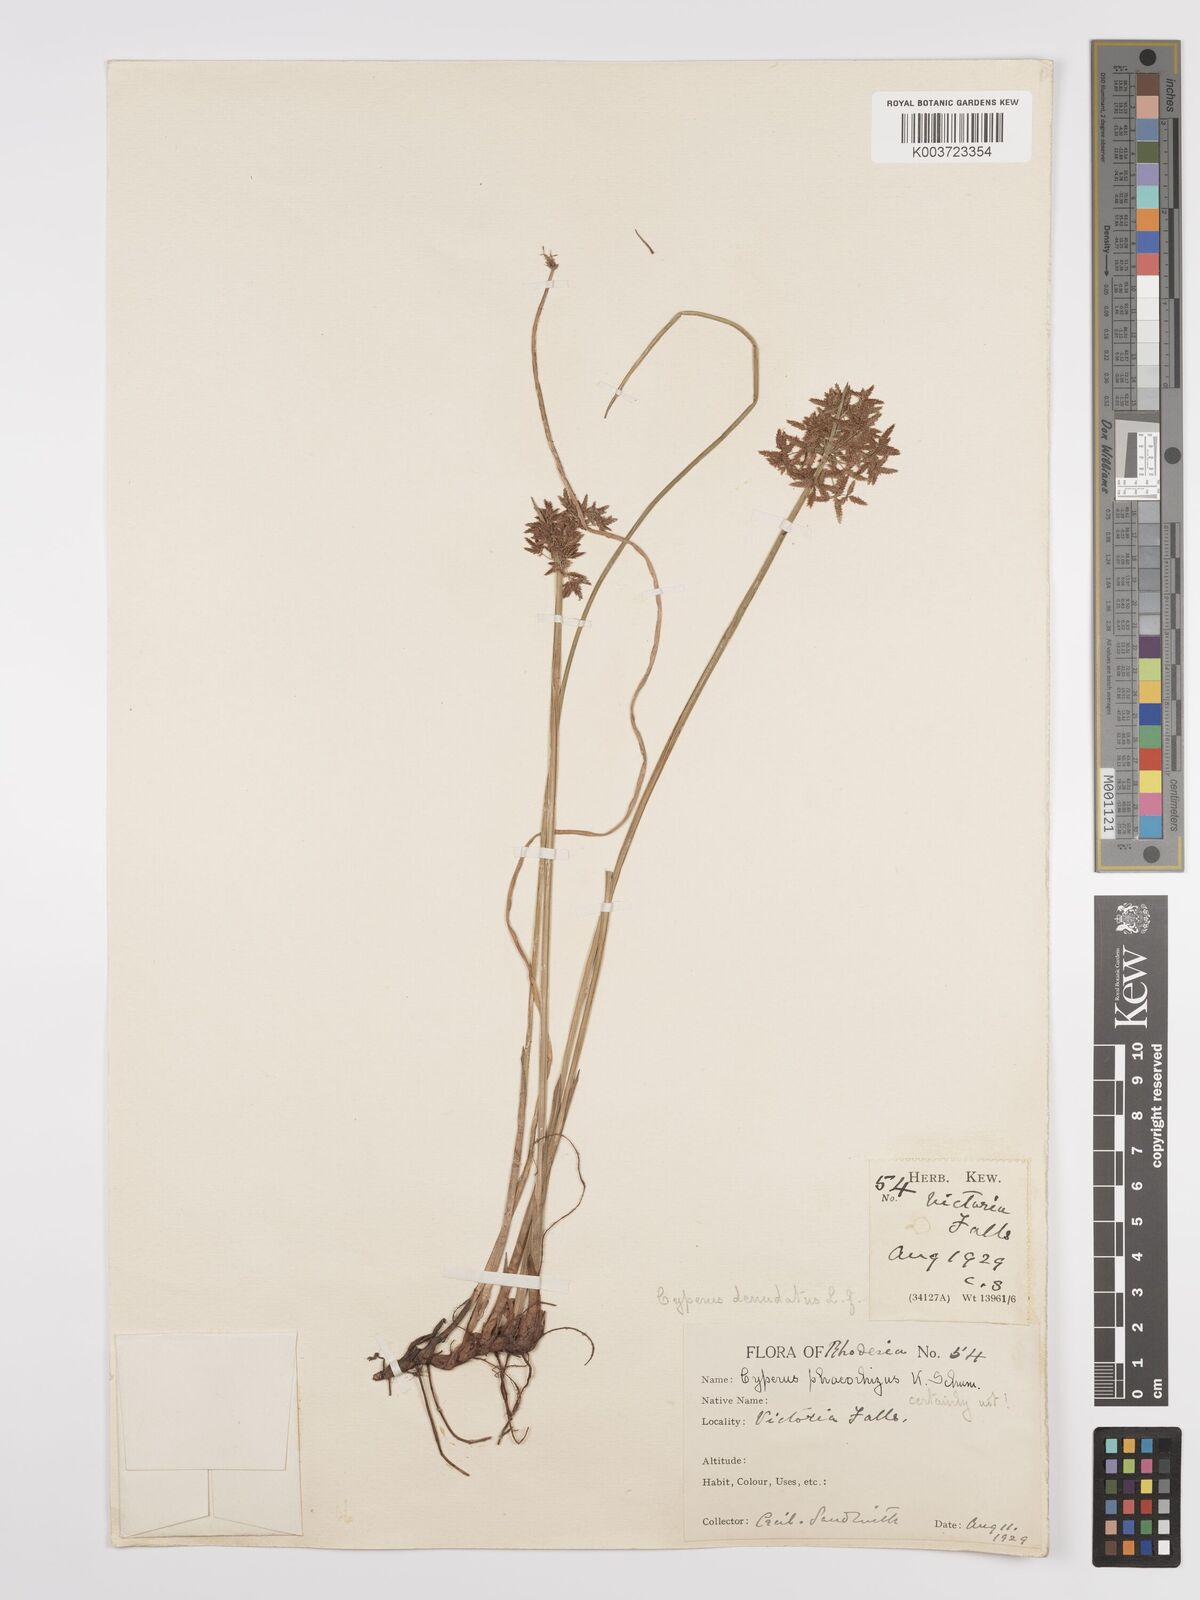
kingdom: Plantae
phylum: Tracheophyta
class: Liliopsida
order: Poales
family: Cyperaceae
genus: Cyperus
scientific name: Cyperus denudatus
